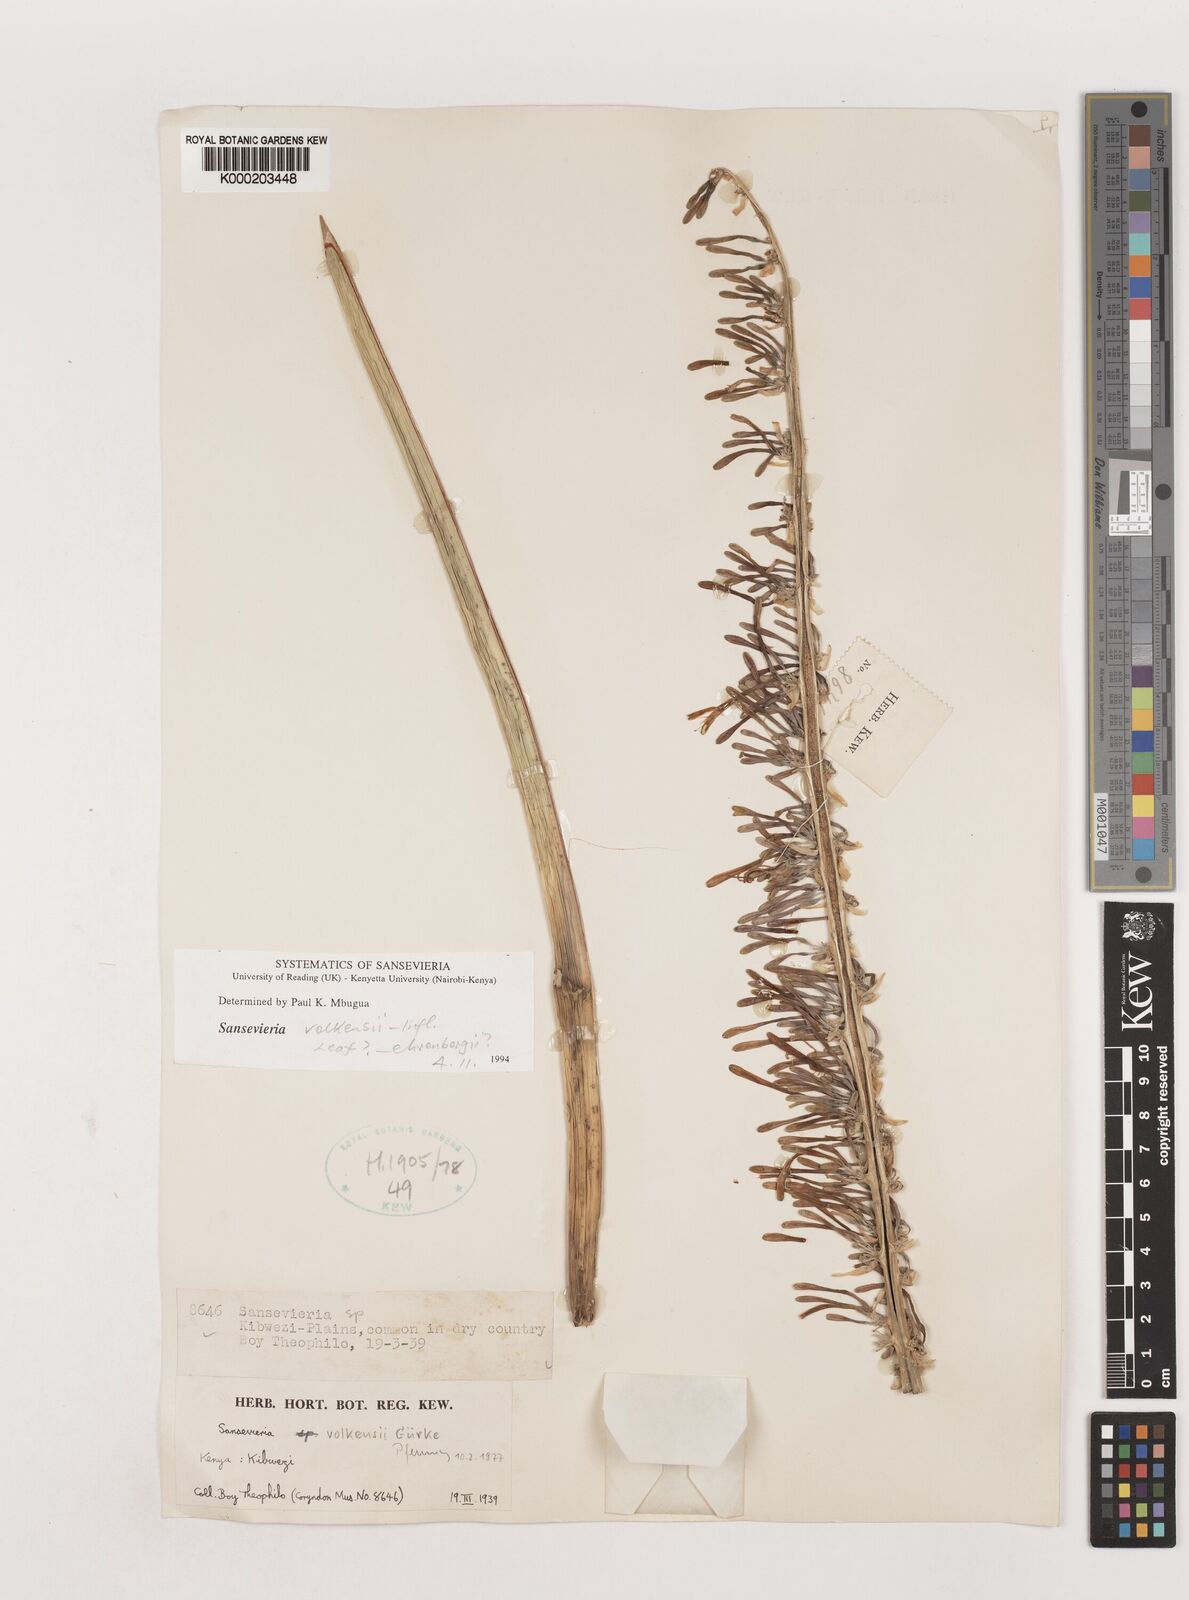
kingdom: Plantae
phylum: Tracheophyta
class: Liliopsida
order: Asparagales
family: Asparagaceae
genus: Dracaena
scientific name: Dracaena volkensii
